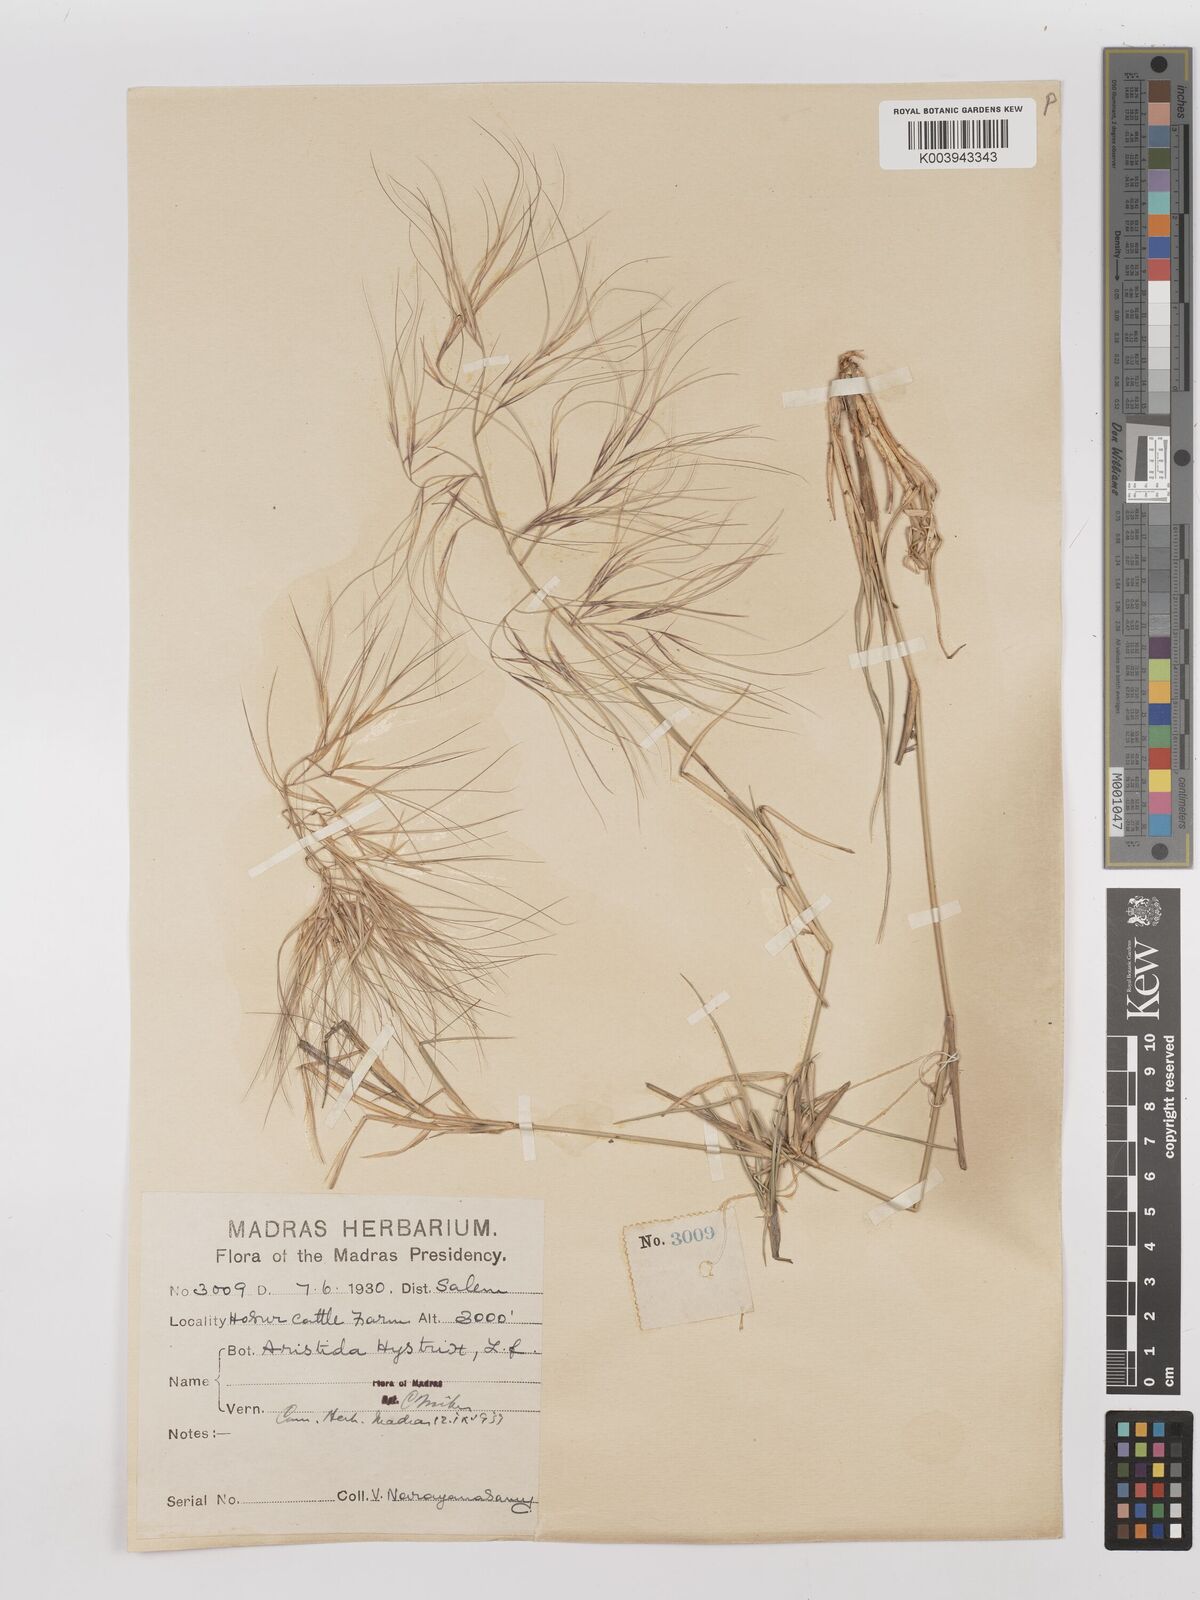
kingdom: Plantae
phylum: Tracheophyta
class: Liliopsida
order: Poales
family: Poaceae
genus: Aristida
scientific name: Aristida hystrix
